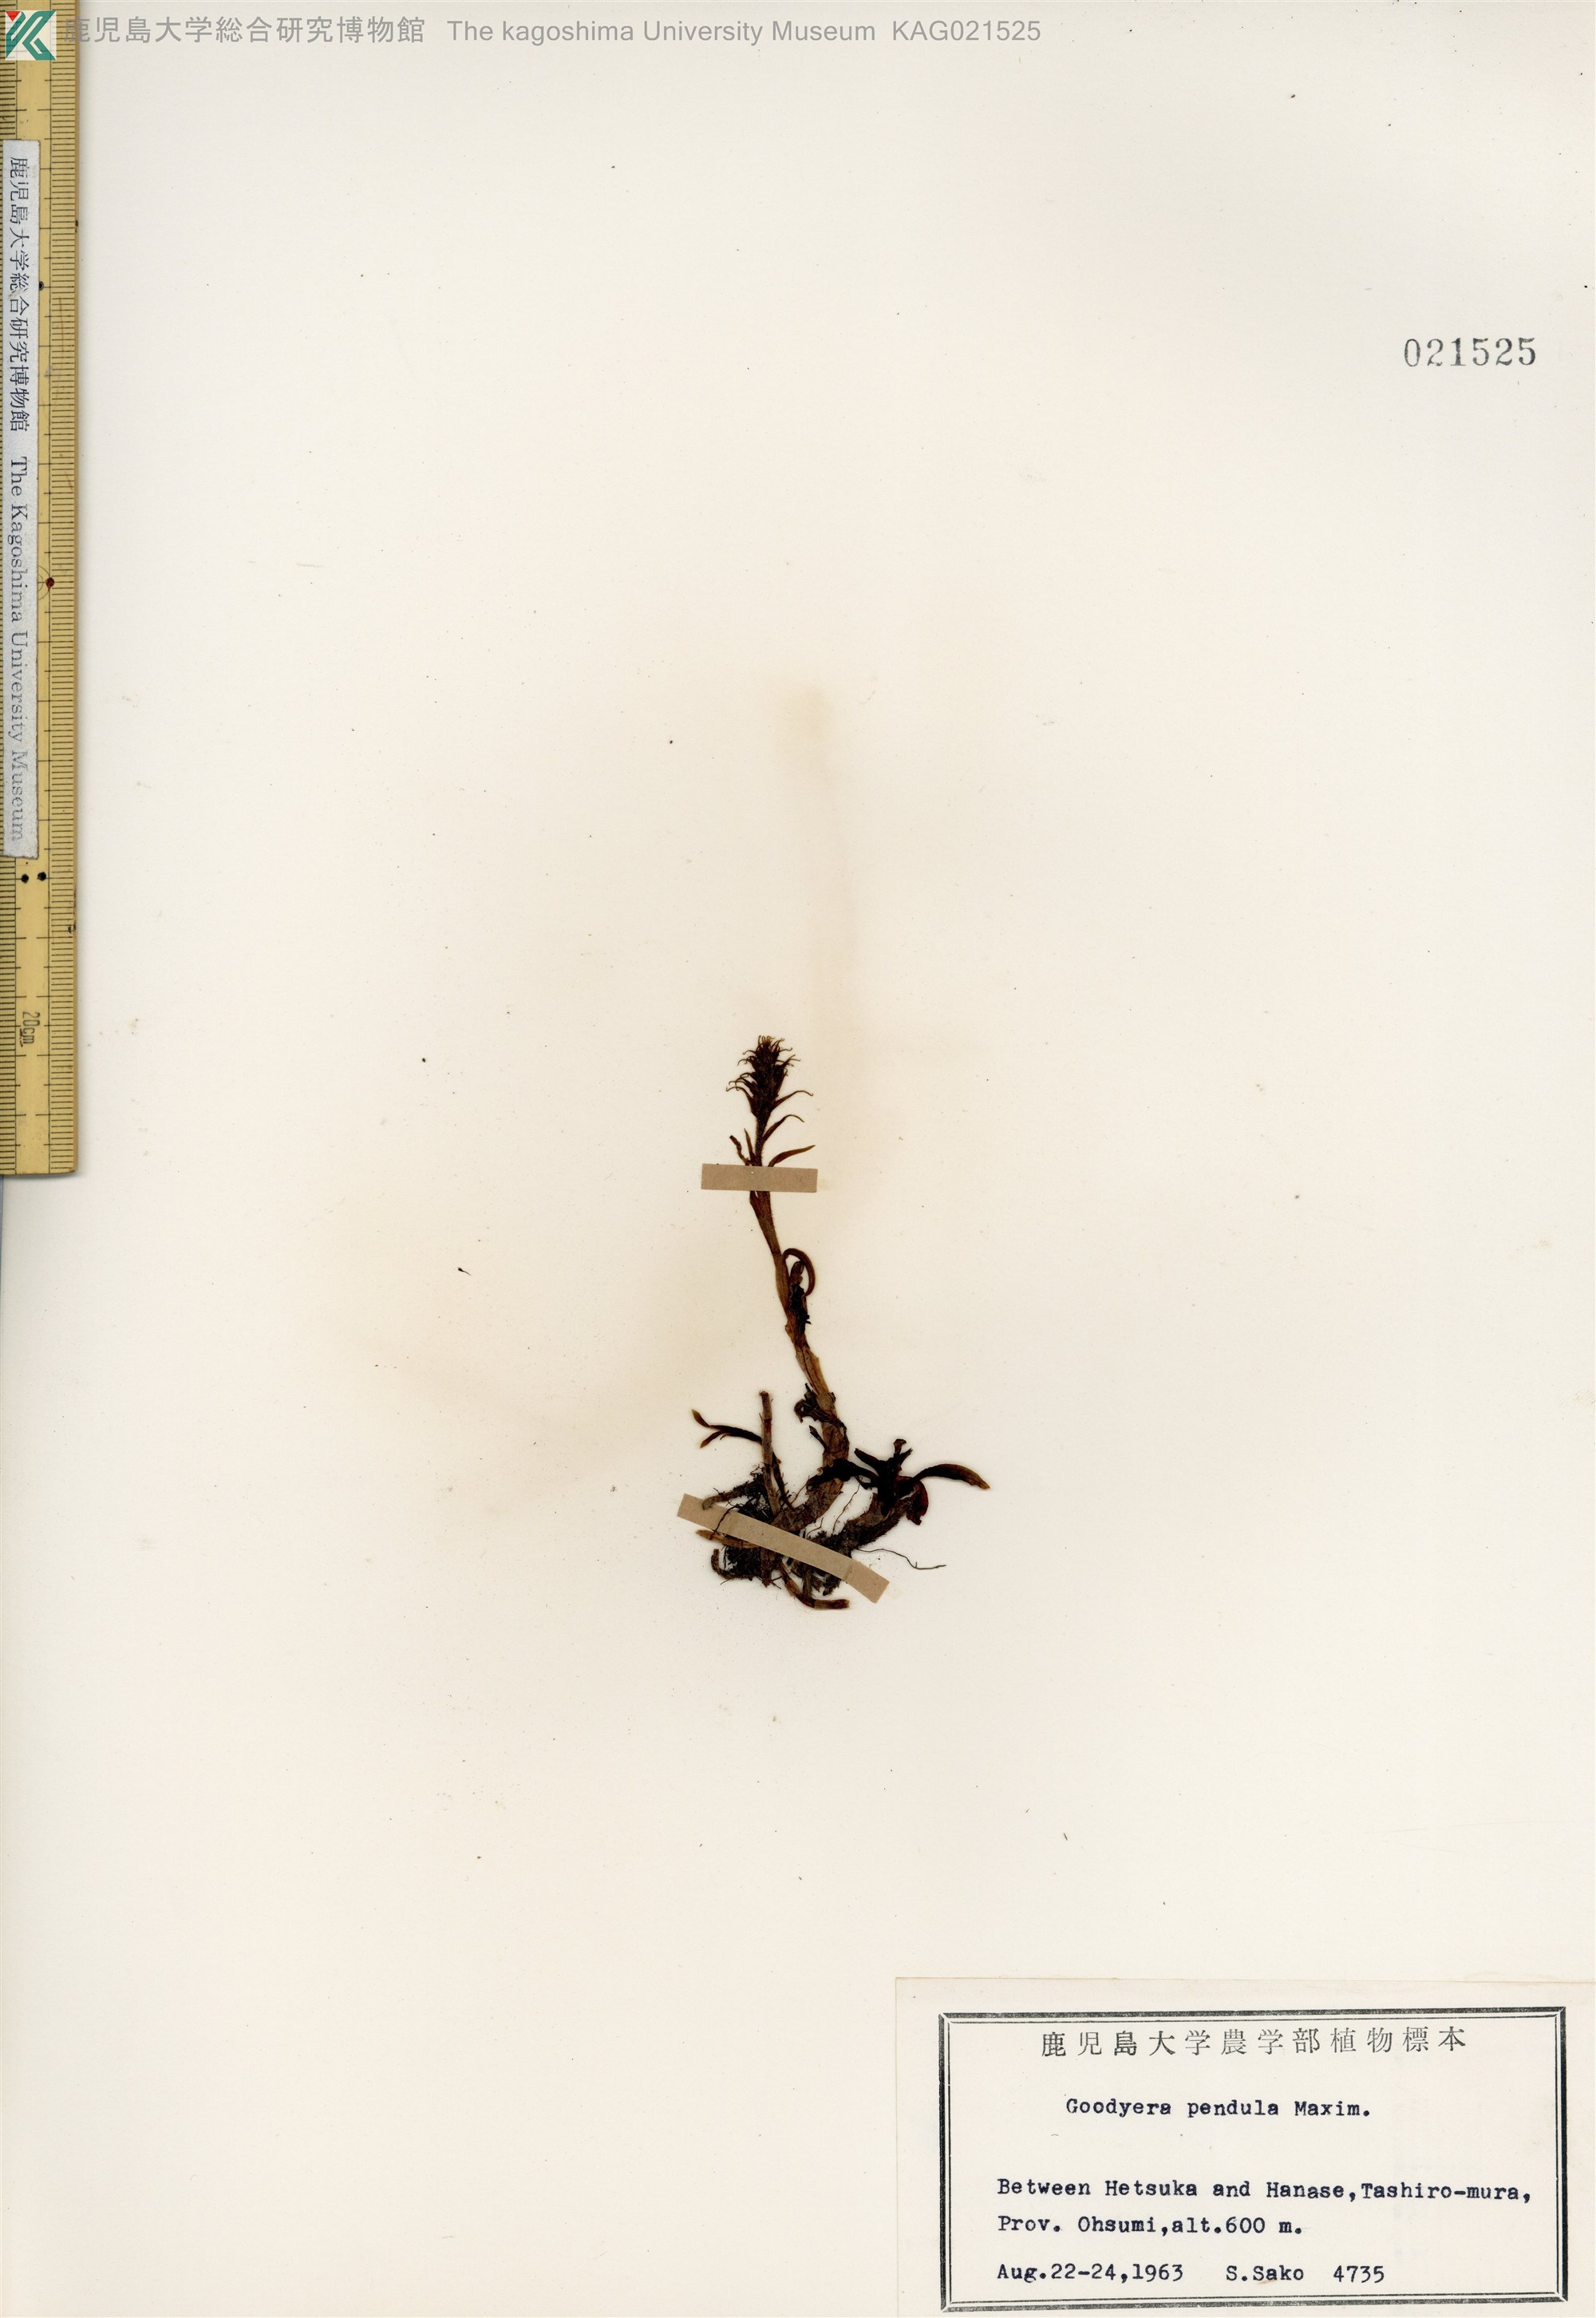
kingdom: Plantae
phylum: Tracheophyta
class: Liliopsida
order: Asparagales
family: Orchidaceae
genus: Goodyera
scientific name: Goodyera pendula
